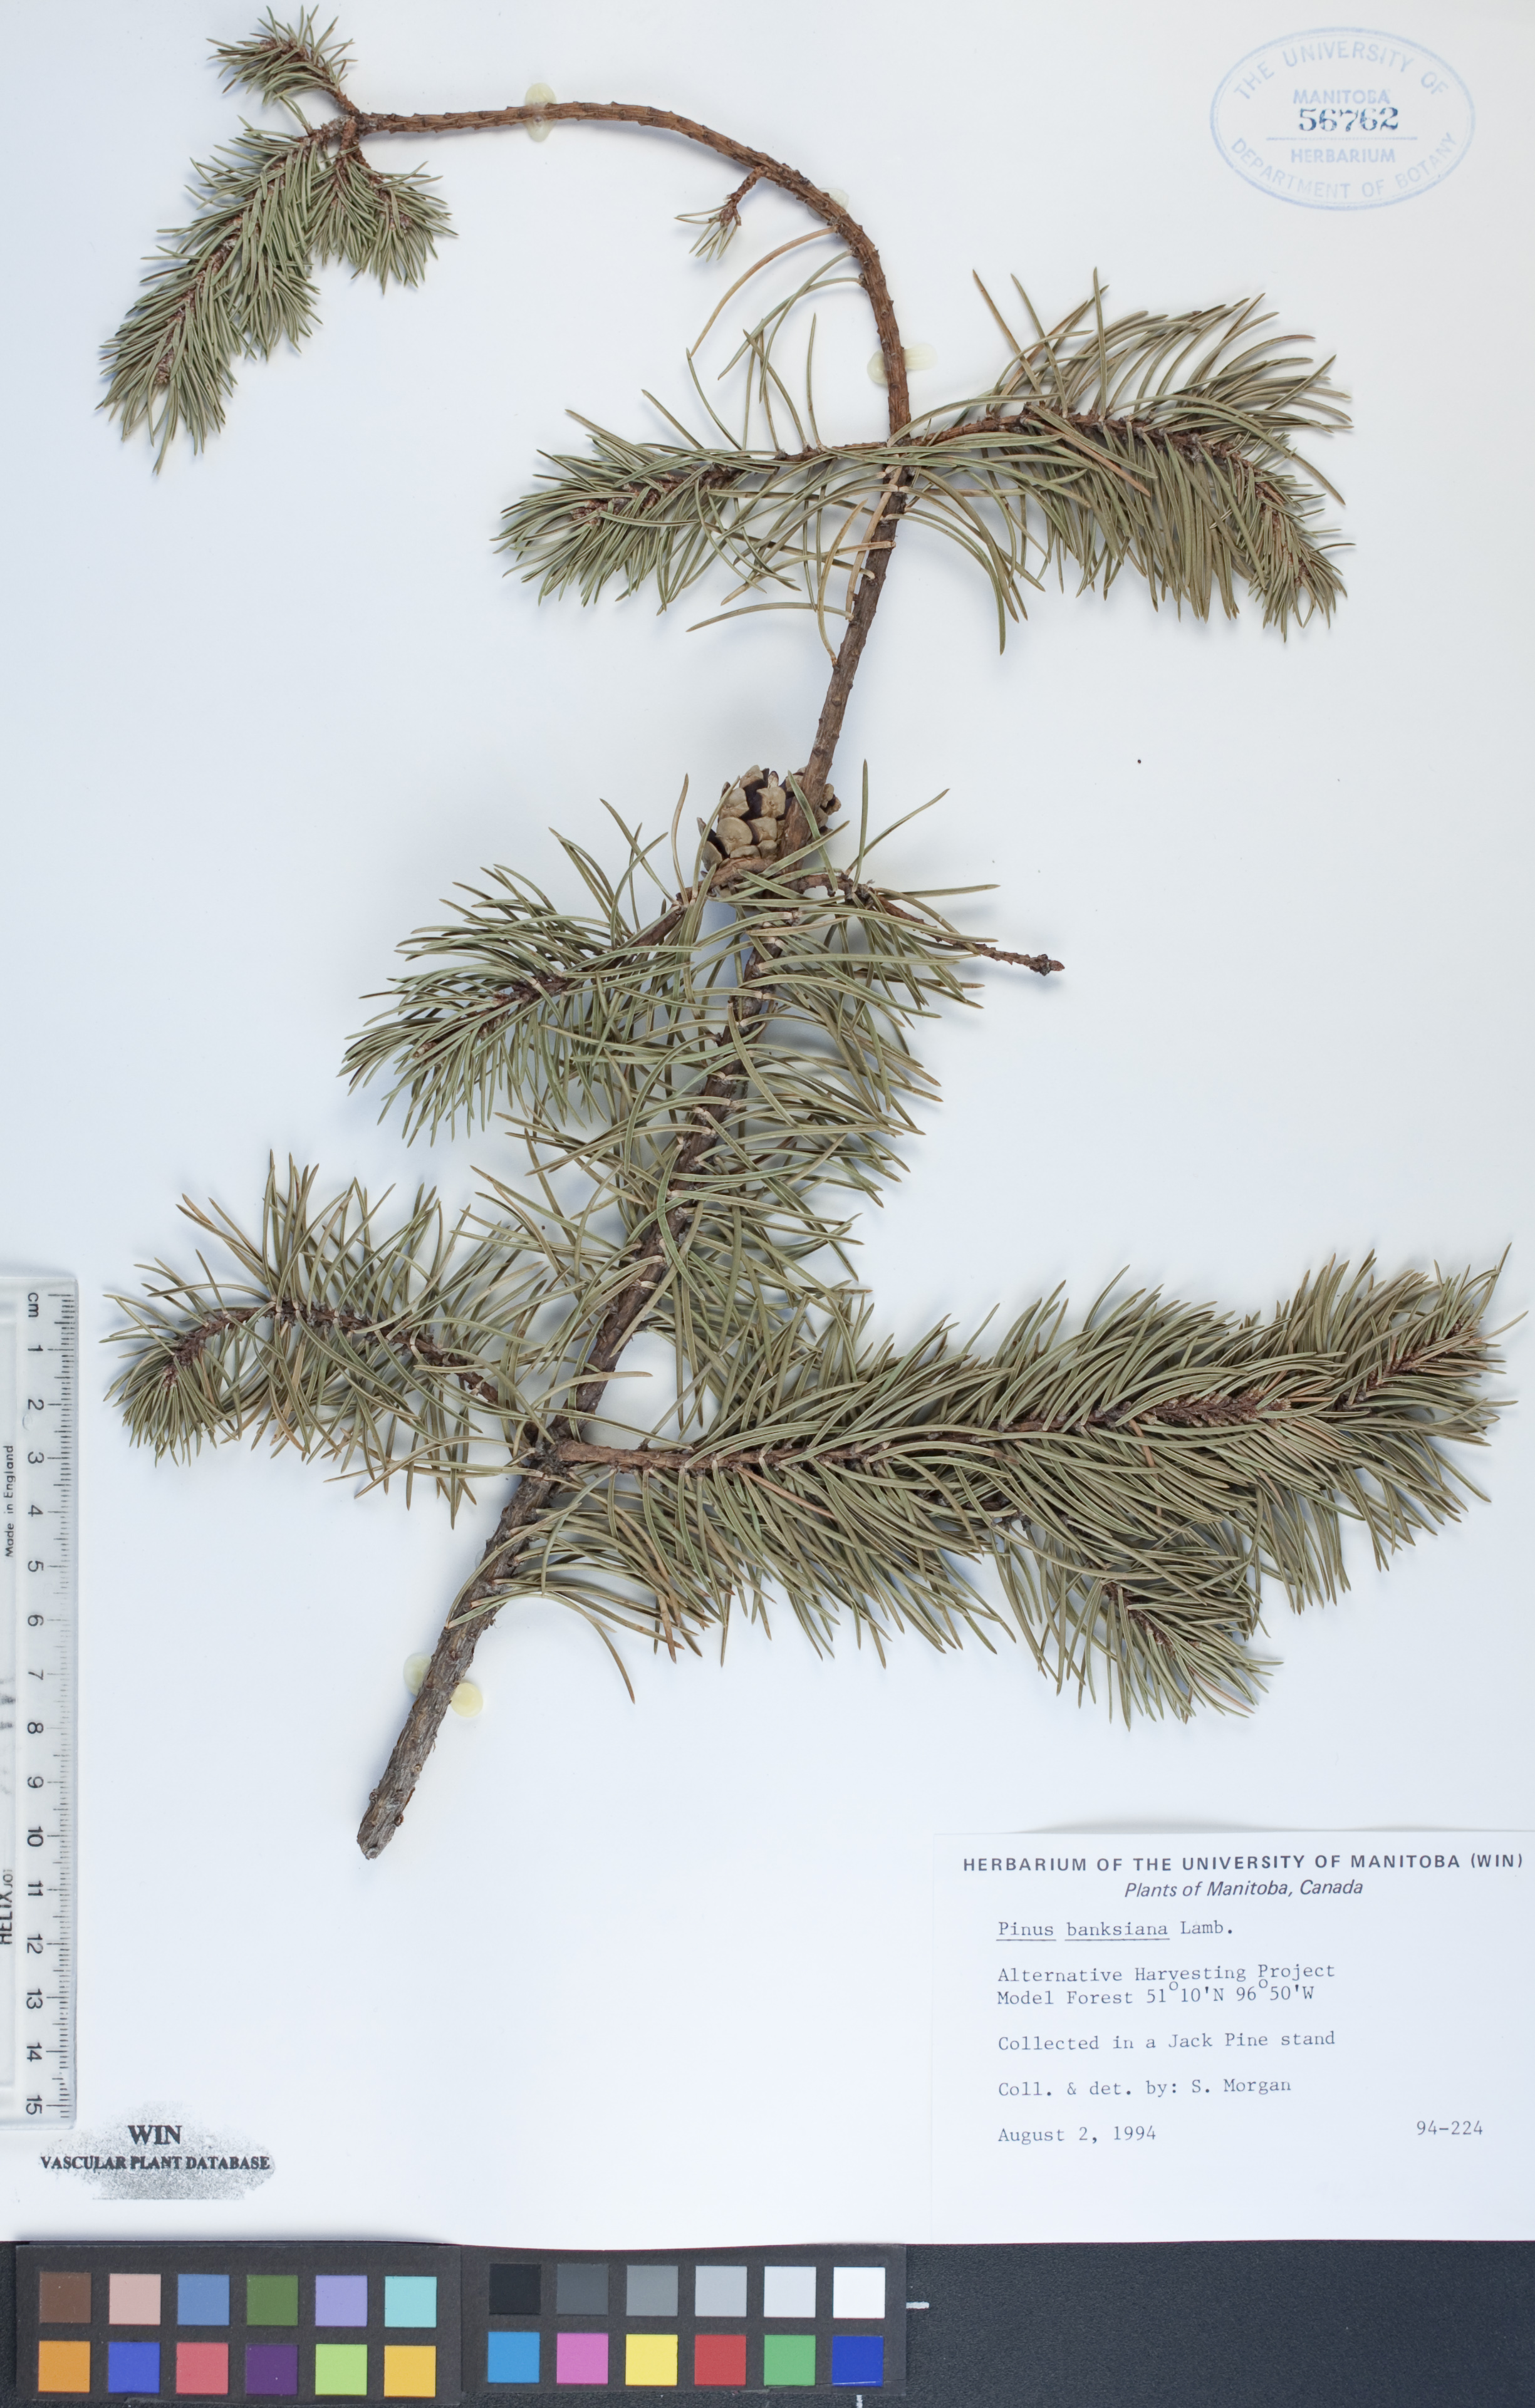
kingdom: Plantae
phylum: Tracheophyta
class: Pinopsida
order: Pinales
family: Pinaceae
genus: Pinus
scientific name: Pinus banksiana
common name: Jack pine
